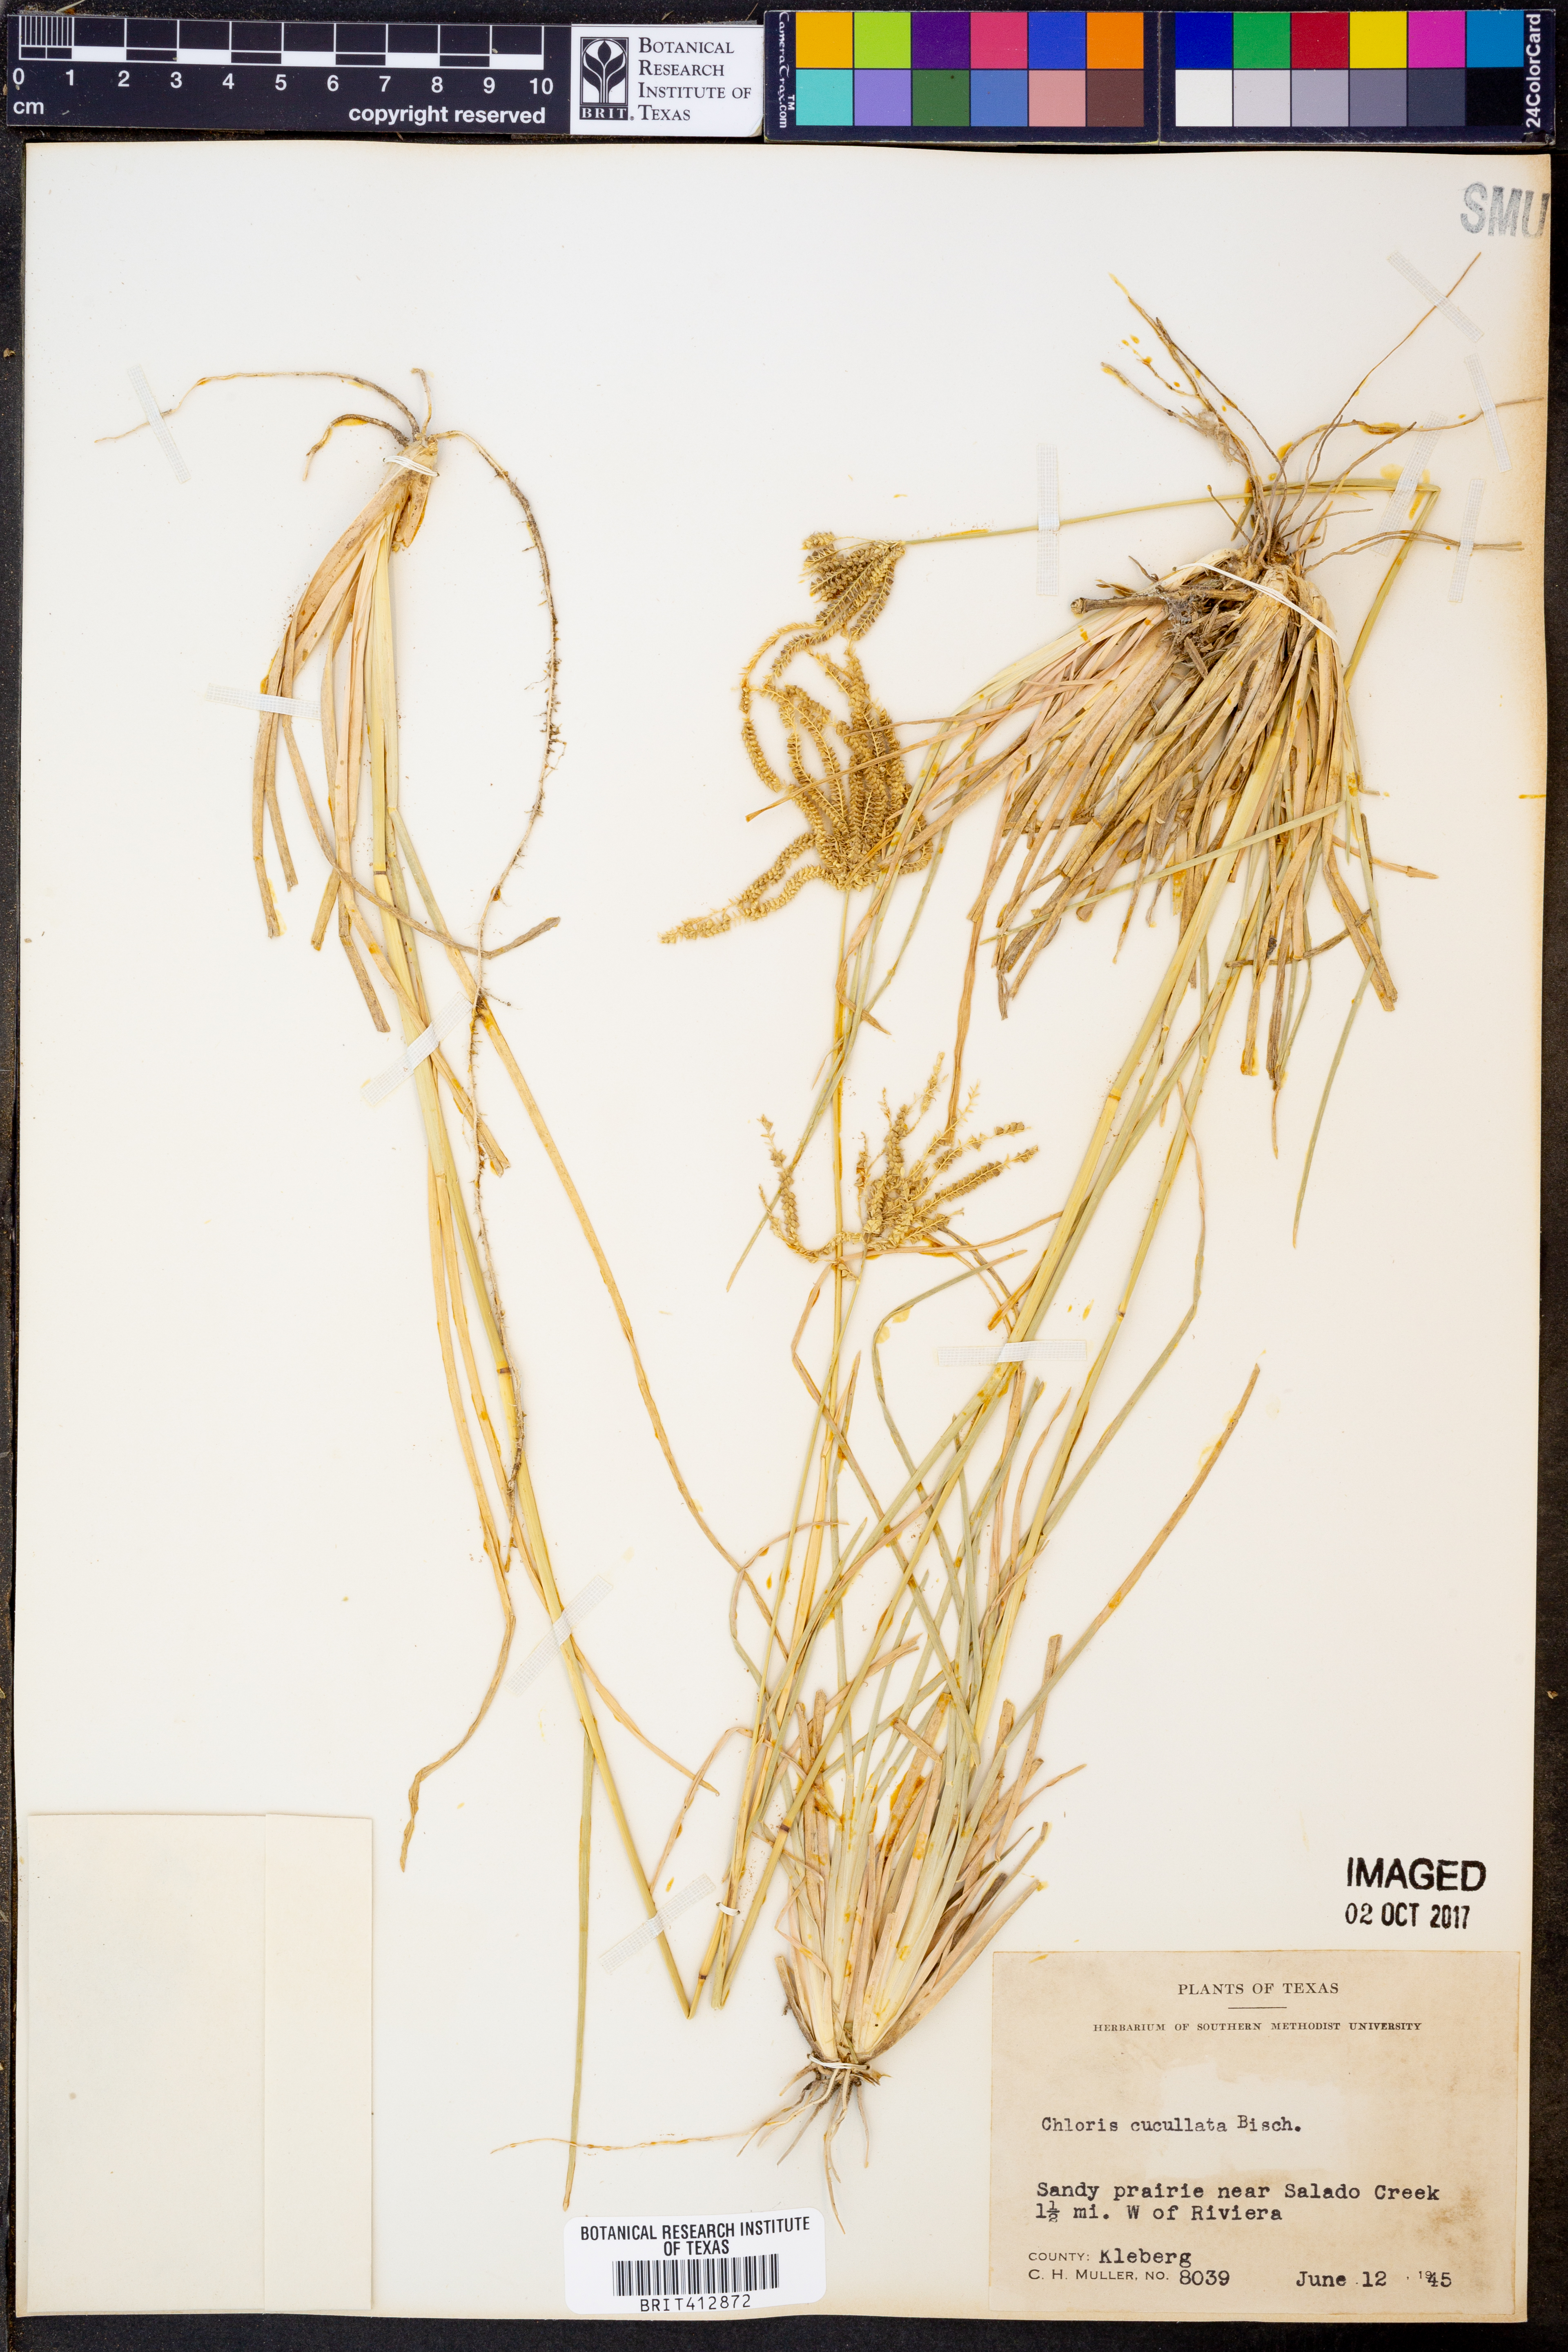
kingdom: Plantae
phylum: Tracheophyta
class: Liliopsida
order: Poales
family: Poaceae
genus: Chloris
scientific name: Chloris cucullata
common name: Hooded windmill grass
